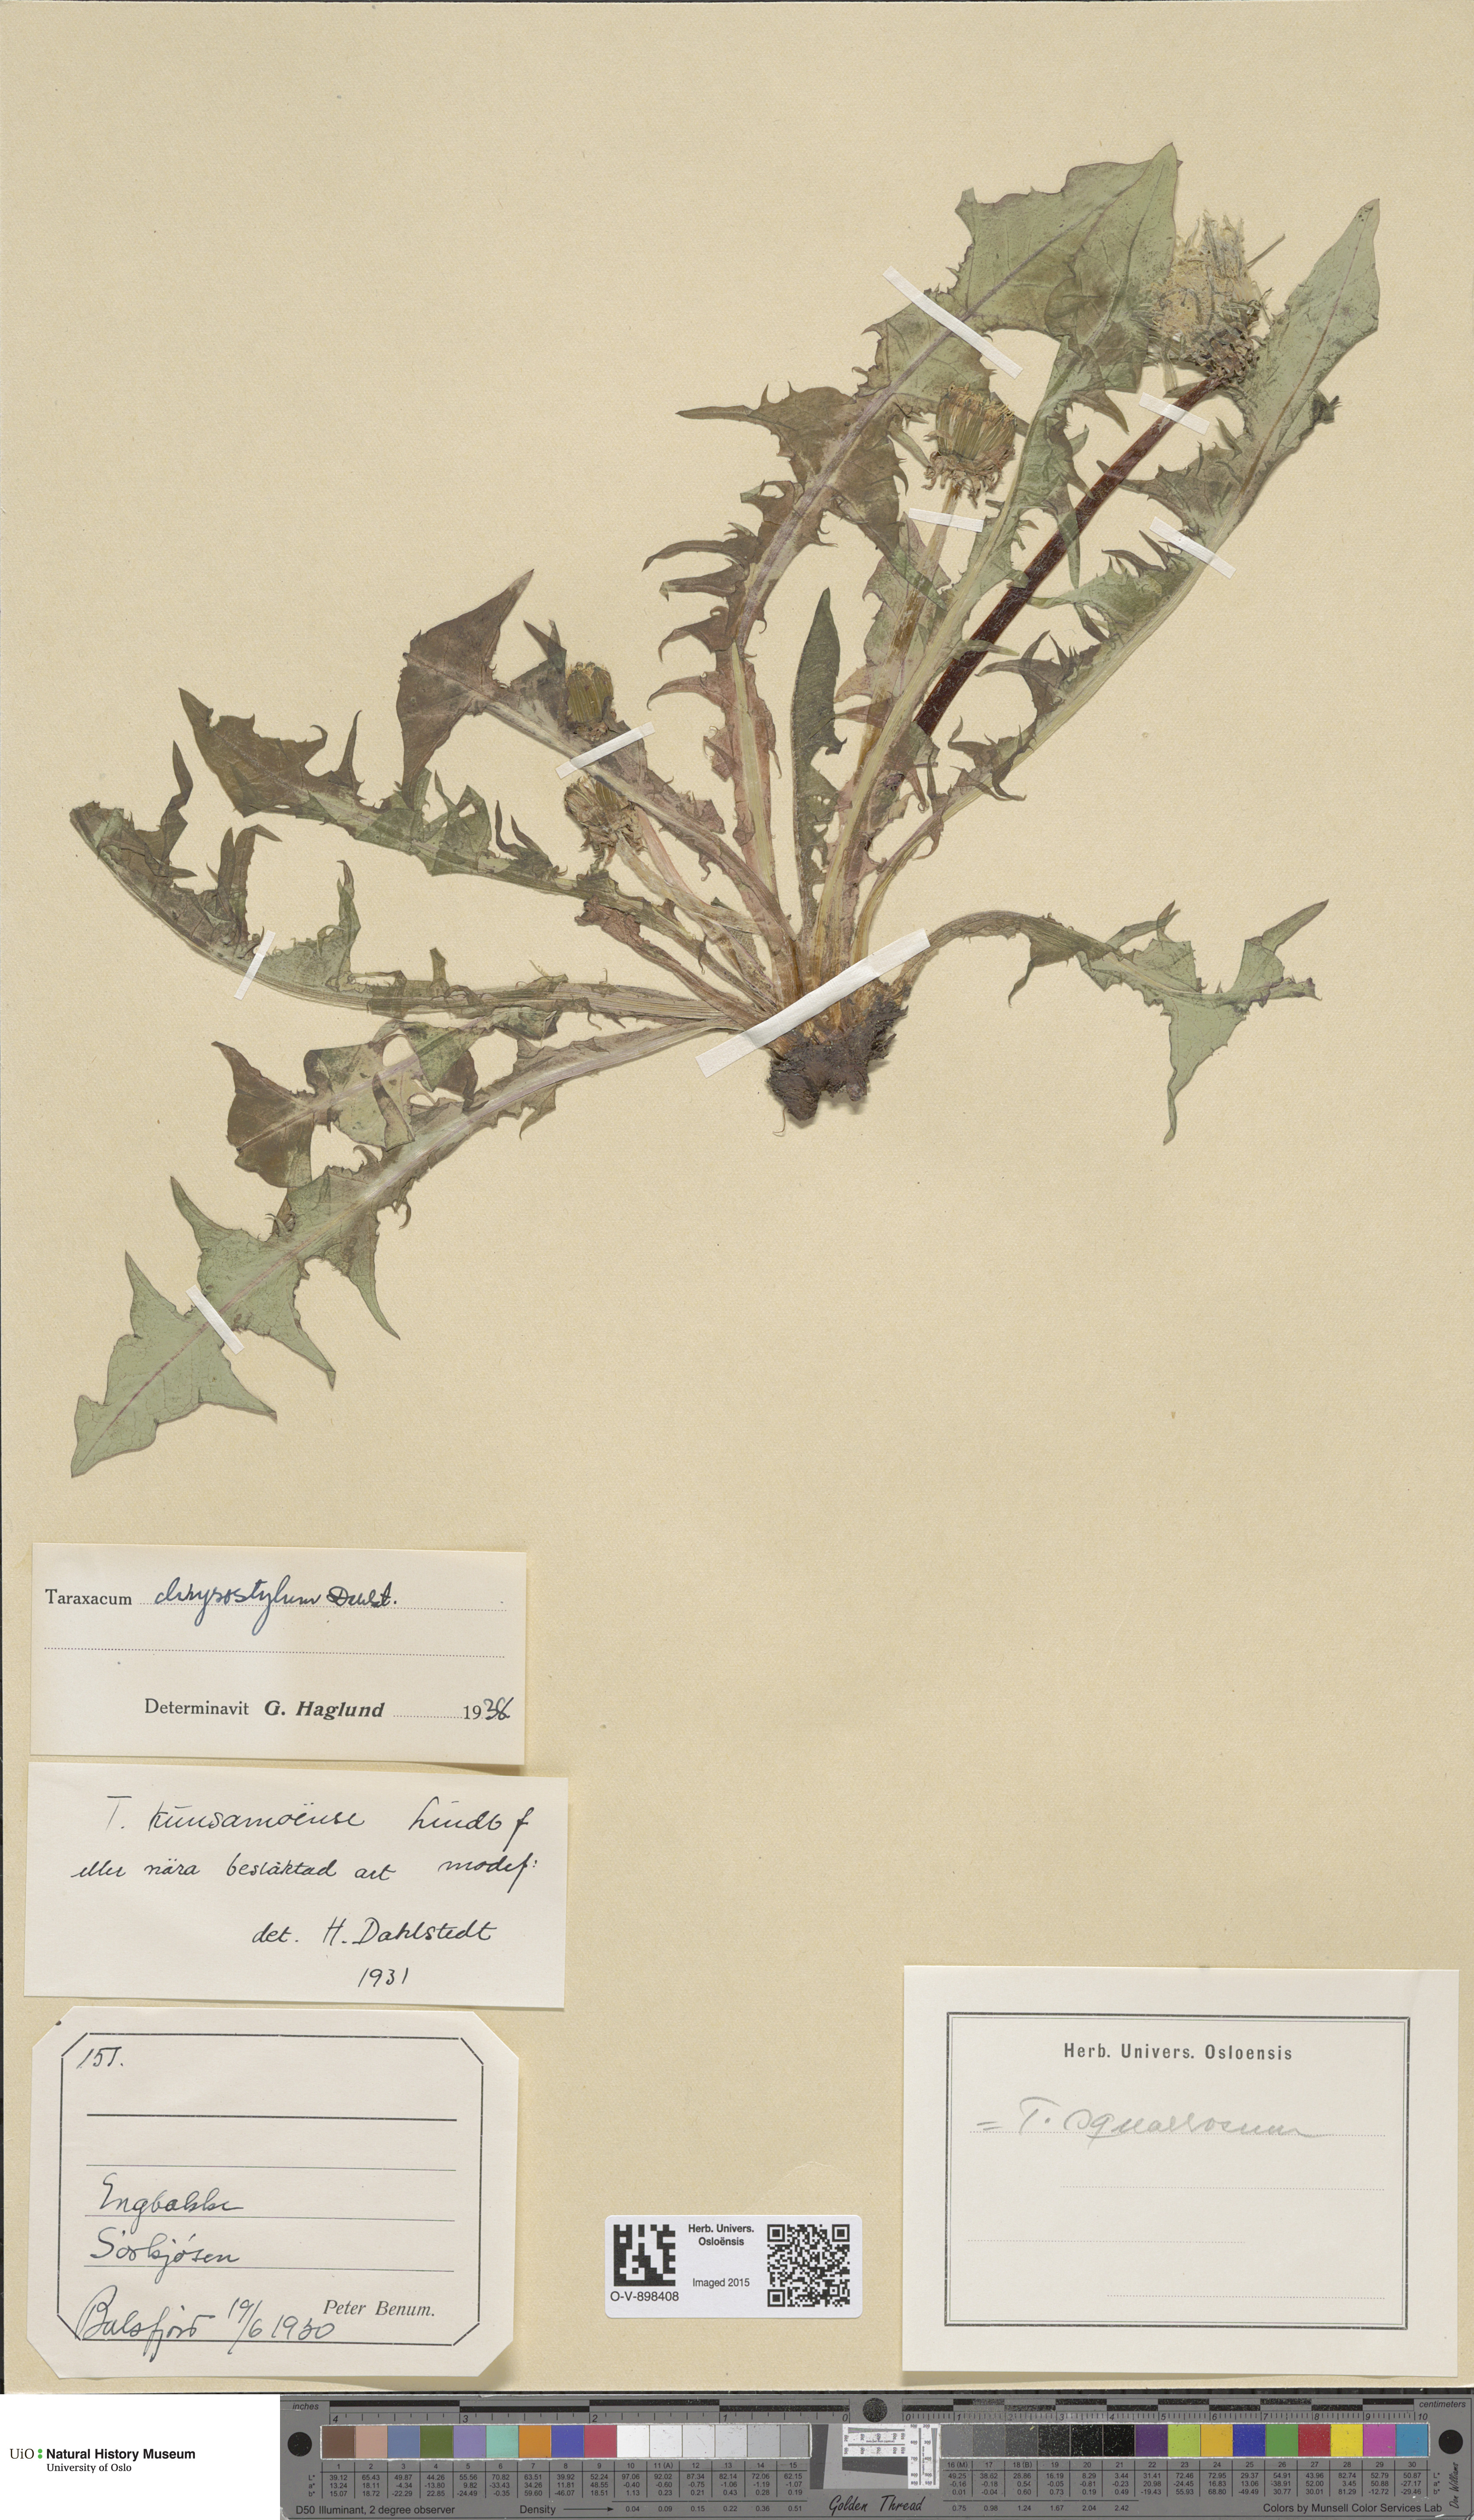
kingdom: Plantae
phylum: Tracheophyta
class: Magnoliopsida
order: Asterales
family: Asteraceae
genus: Taraxacum
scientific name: Taraxacum chrysostylum
